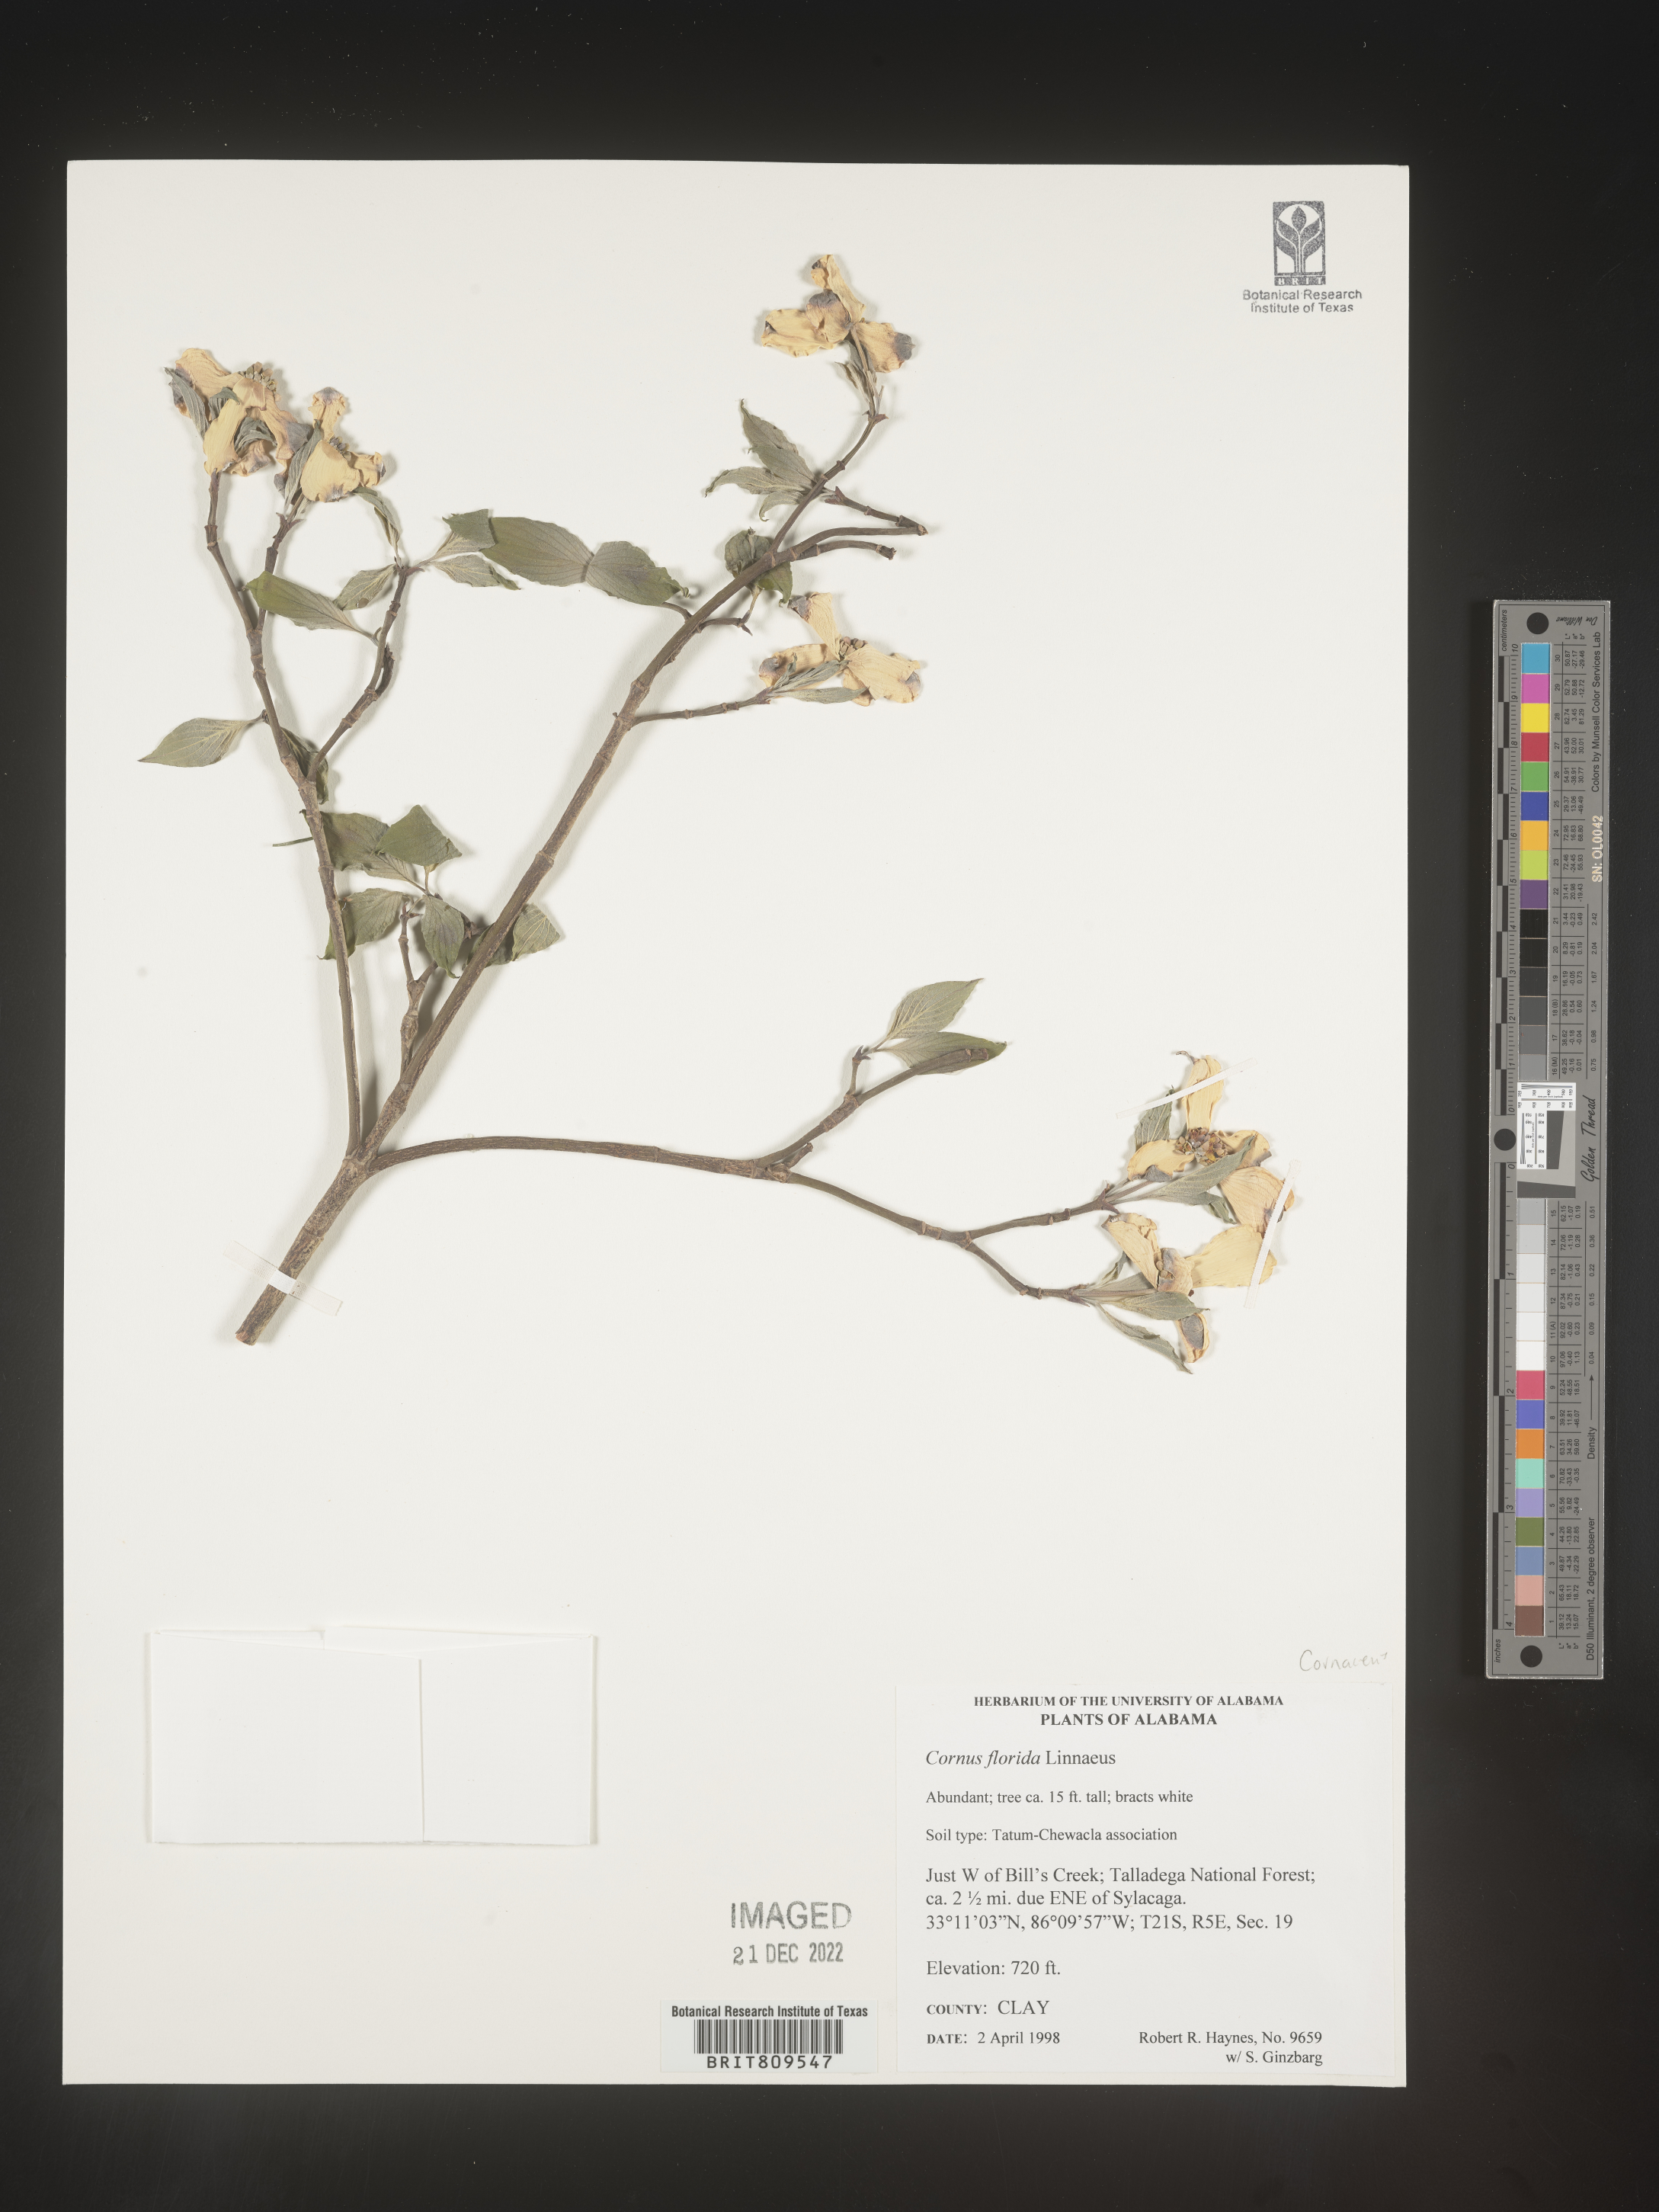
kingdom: Plantae
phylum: Tracheophyta
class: Magnoliopsida
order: Cornales
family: Cornaceae
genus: Cornus
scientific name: Cornus florida
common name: Flowering dogwood
